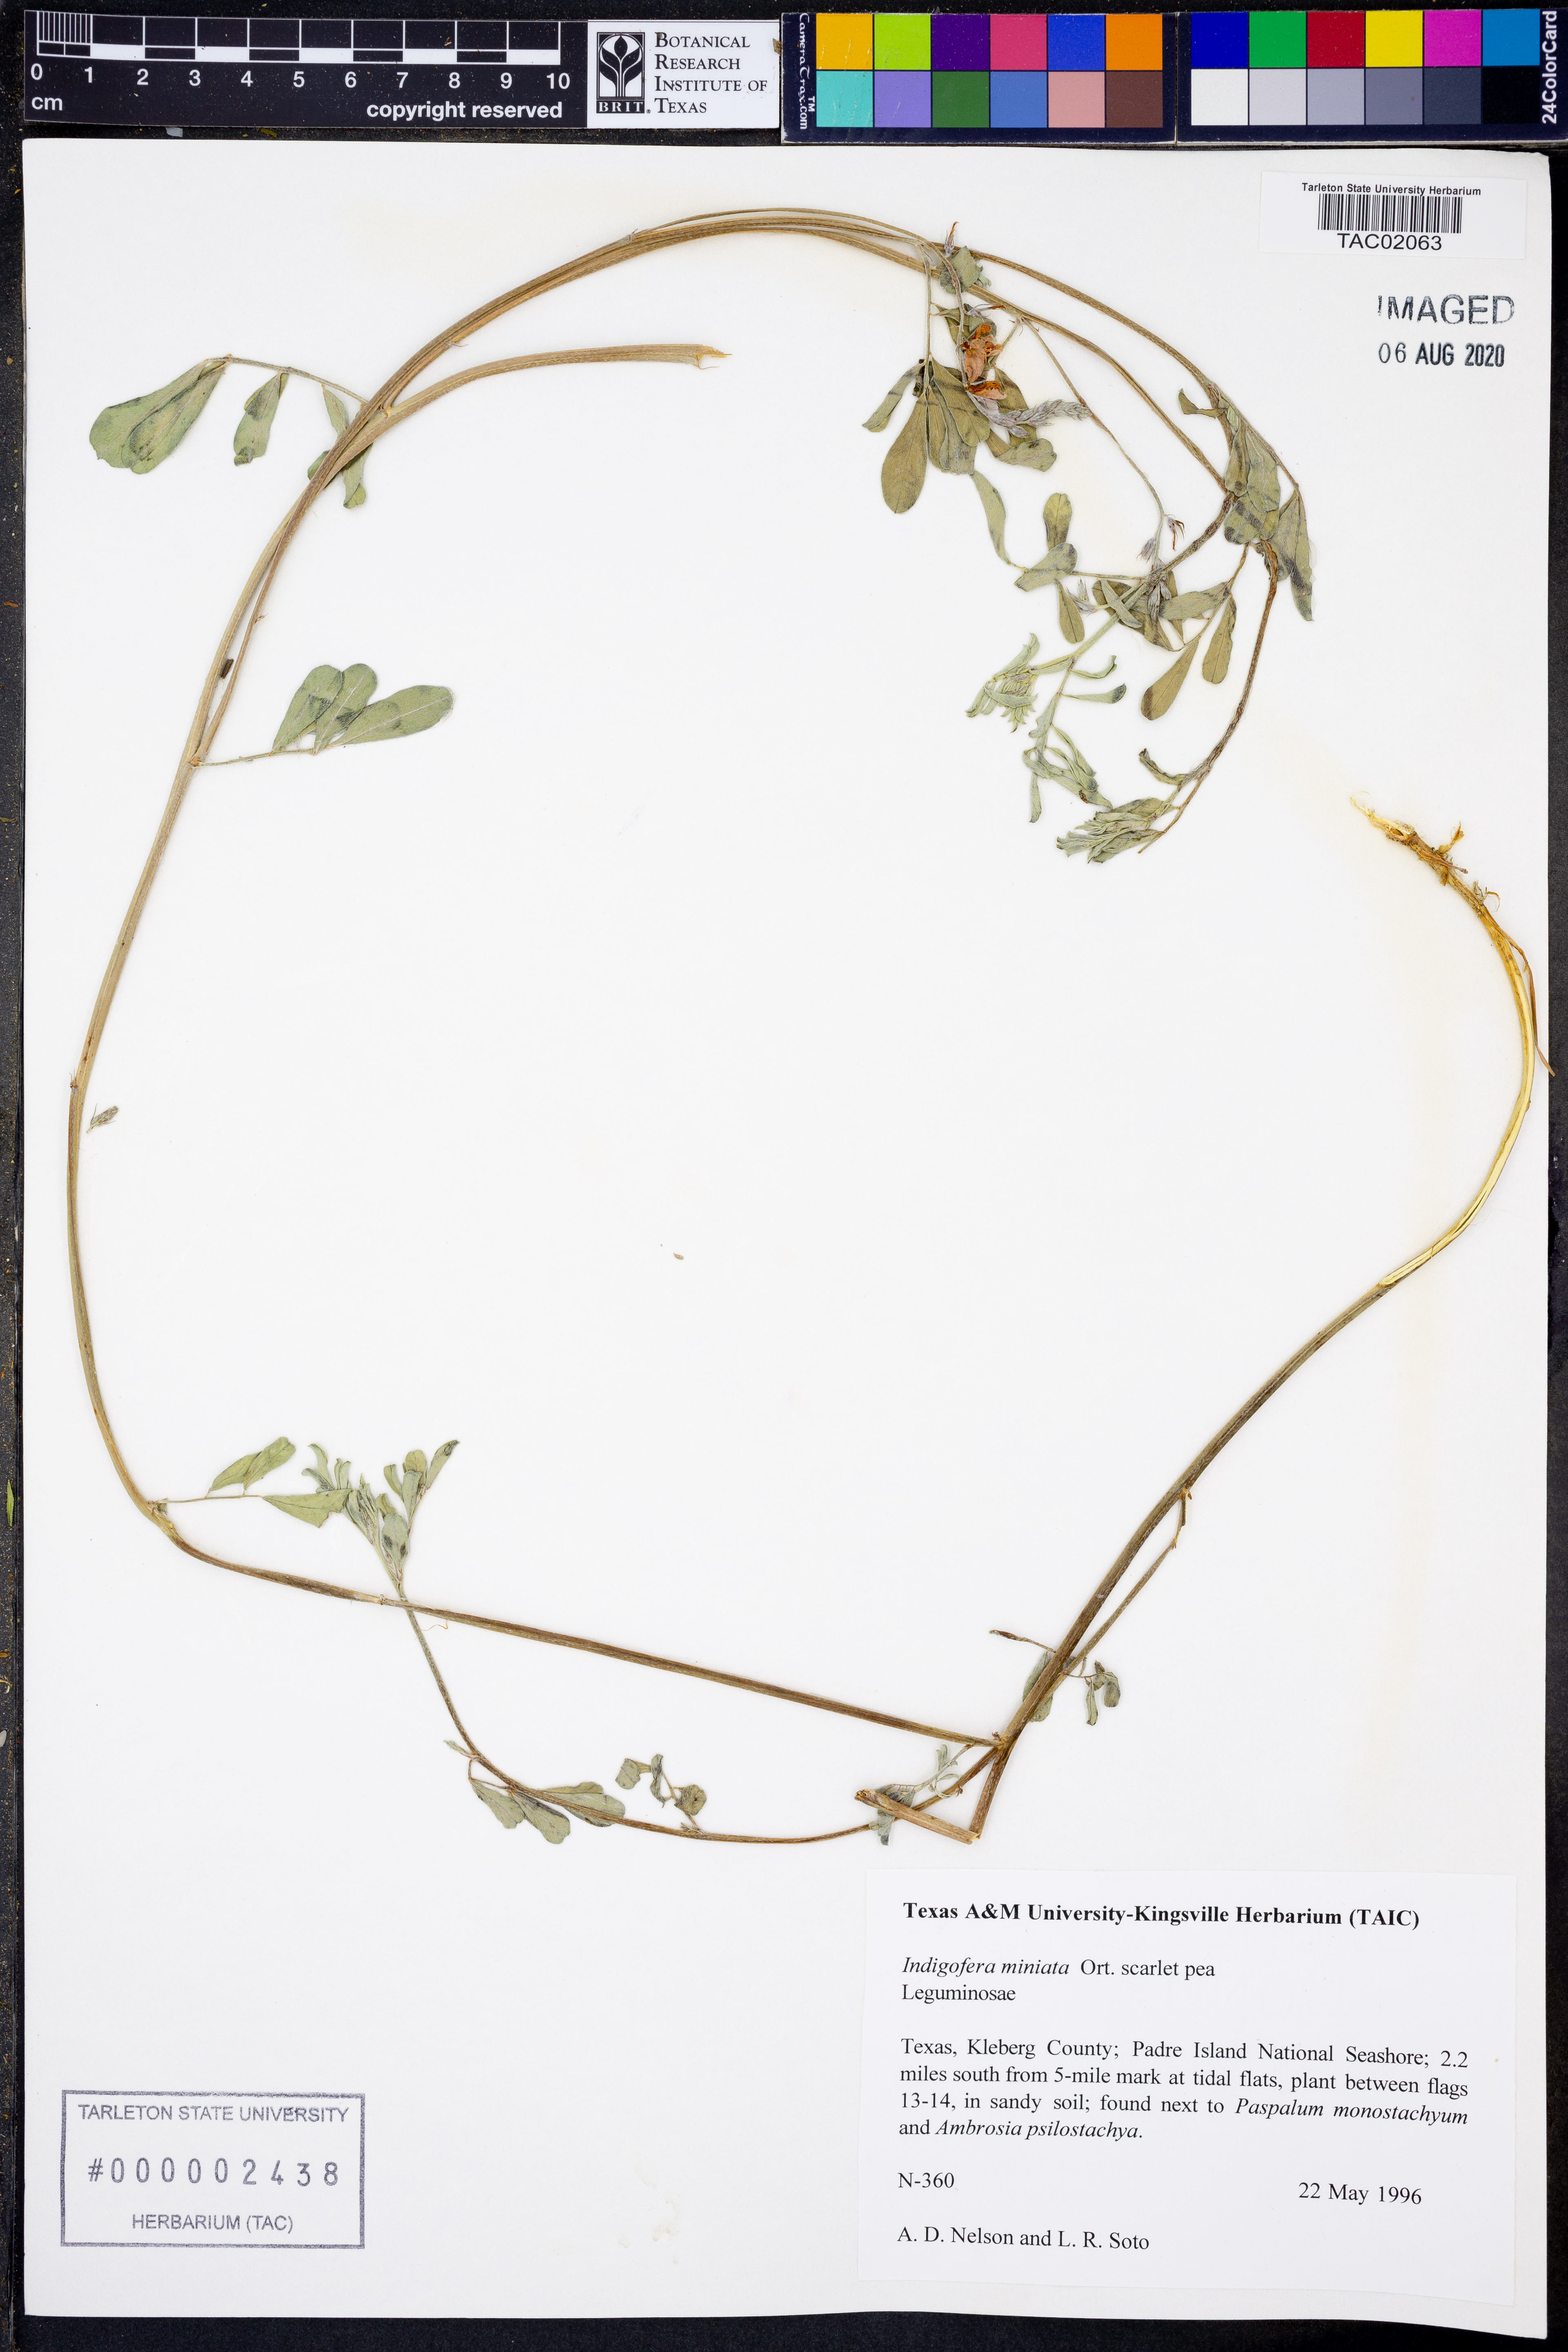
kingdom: Plantae
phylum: Tracheophyta
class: Magnoliopsida
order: Fabales
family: Fabaceae
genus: Indigofera
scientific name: Indigofera miniata
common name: Coast indigo
